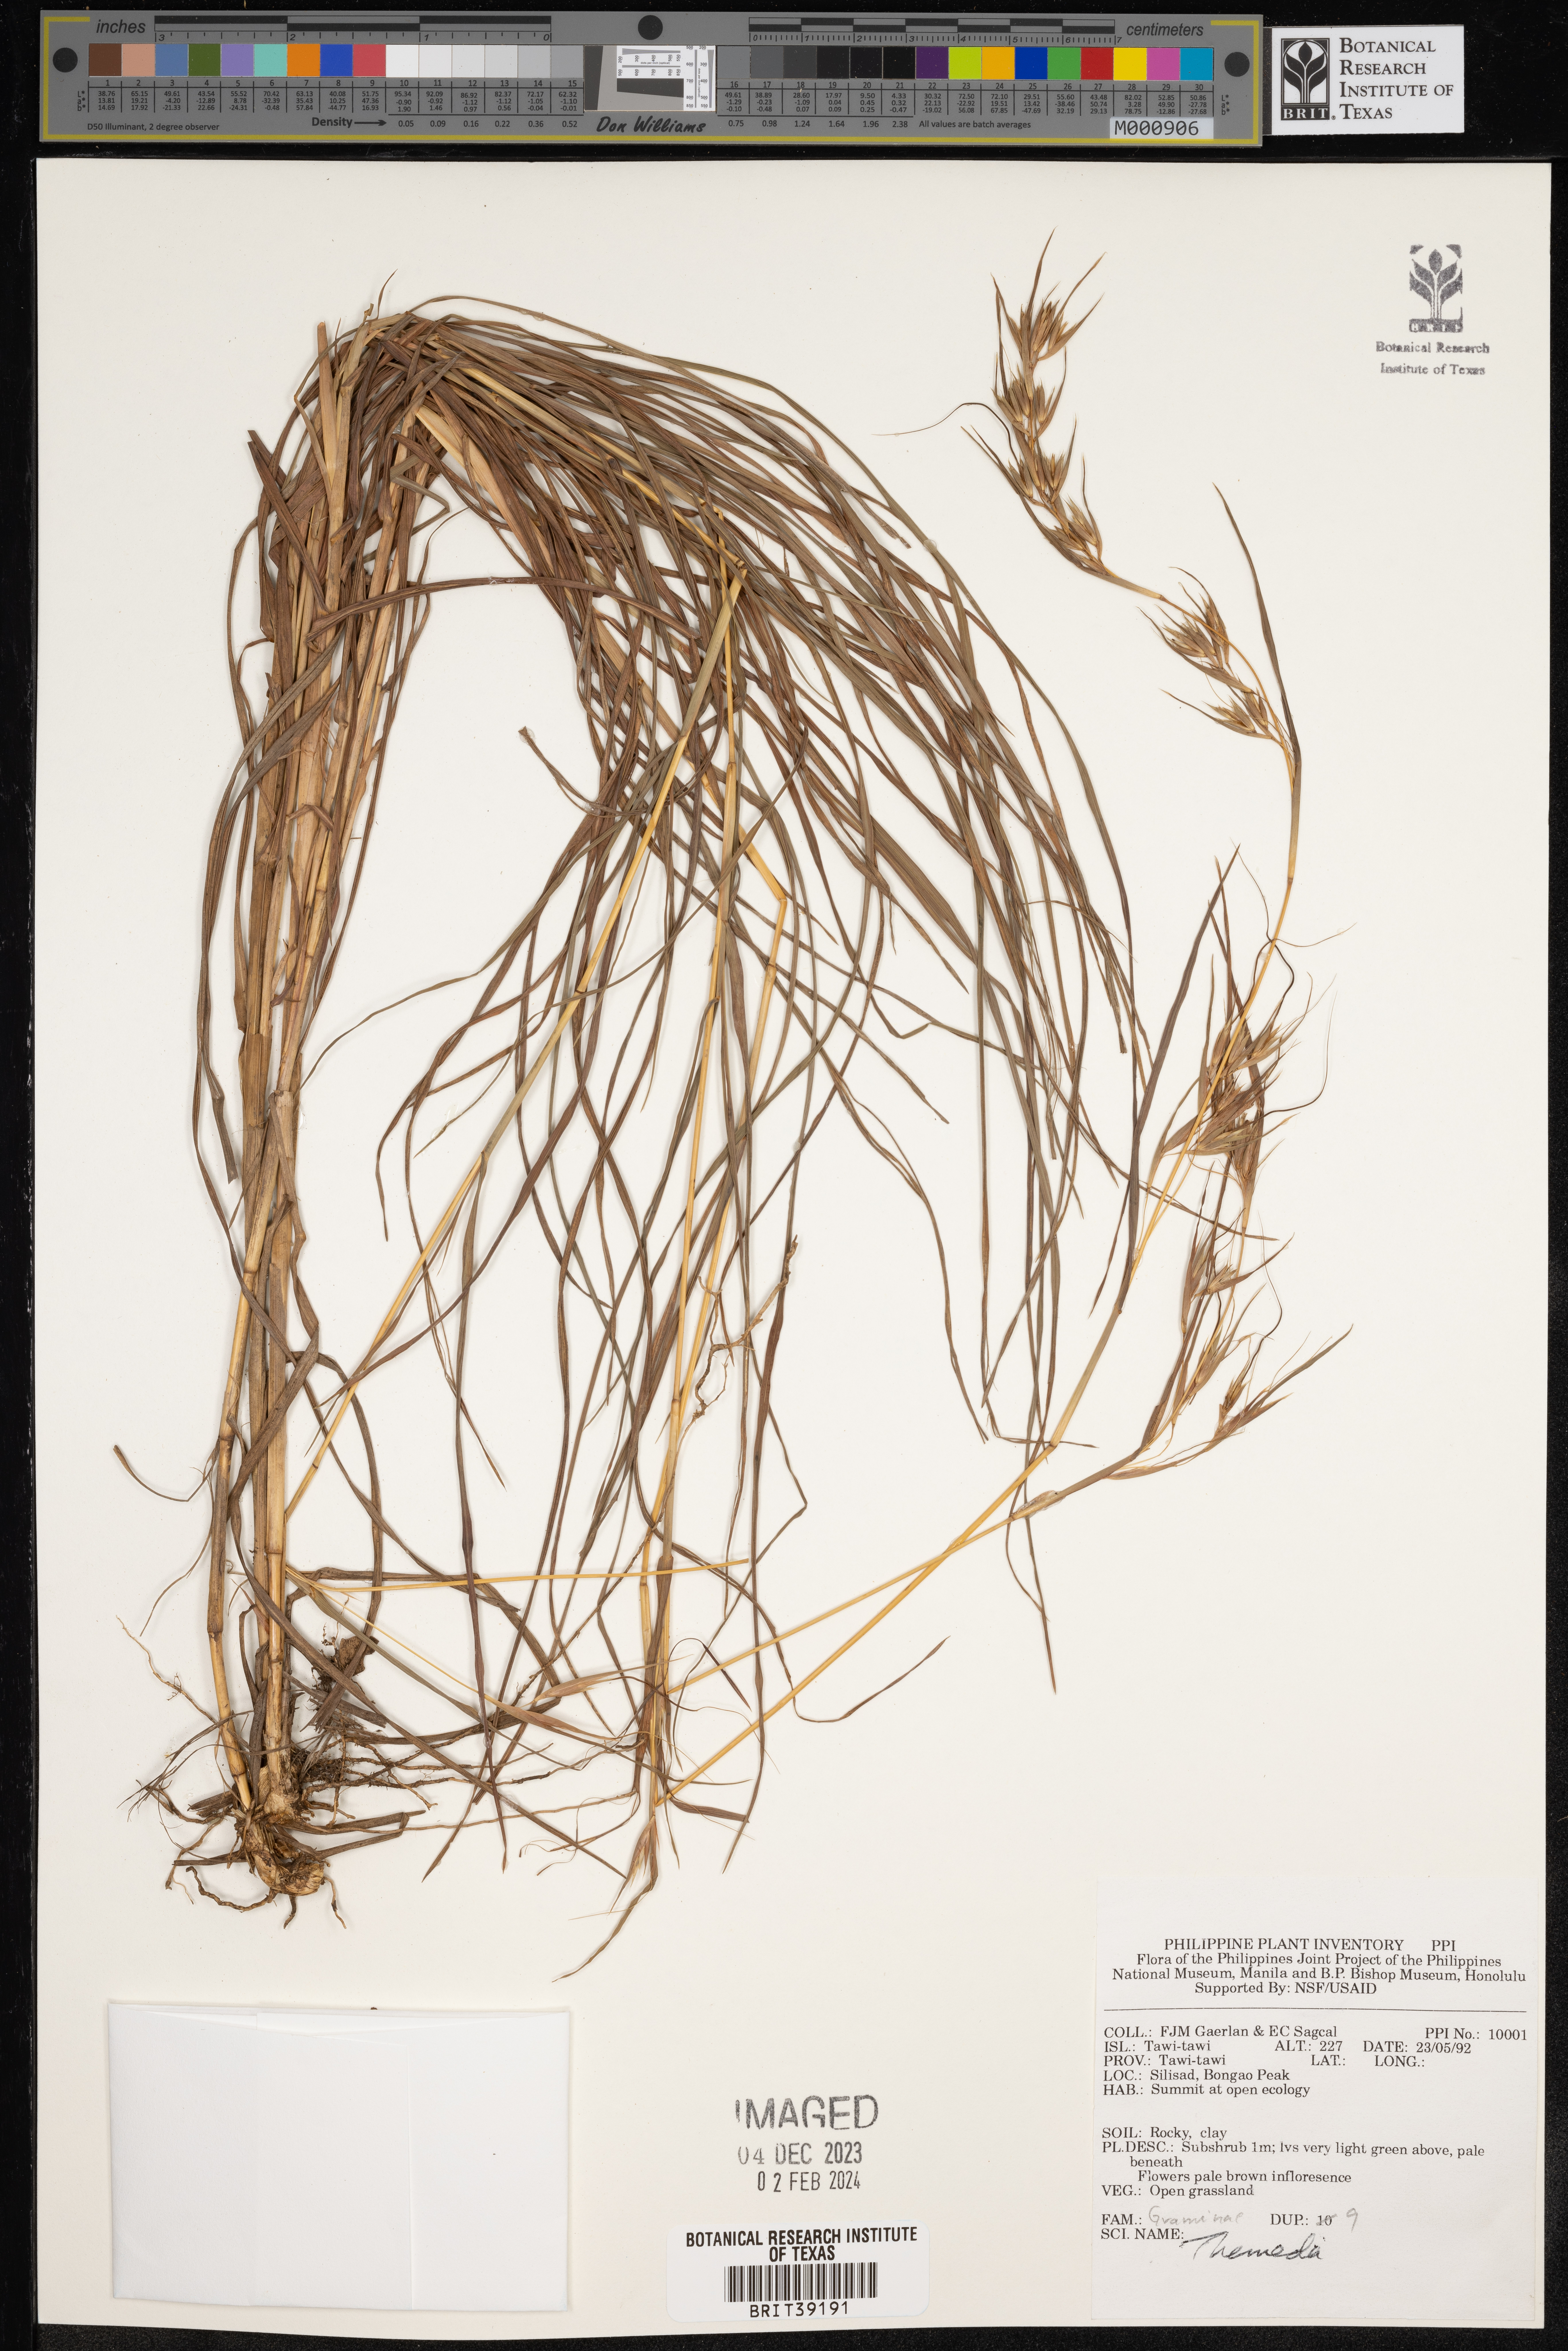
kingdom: Plantae
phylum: Tracheophyta
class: Liliopsida
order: Poales
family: Poaceae
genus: Themeda
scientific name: Themeda
